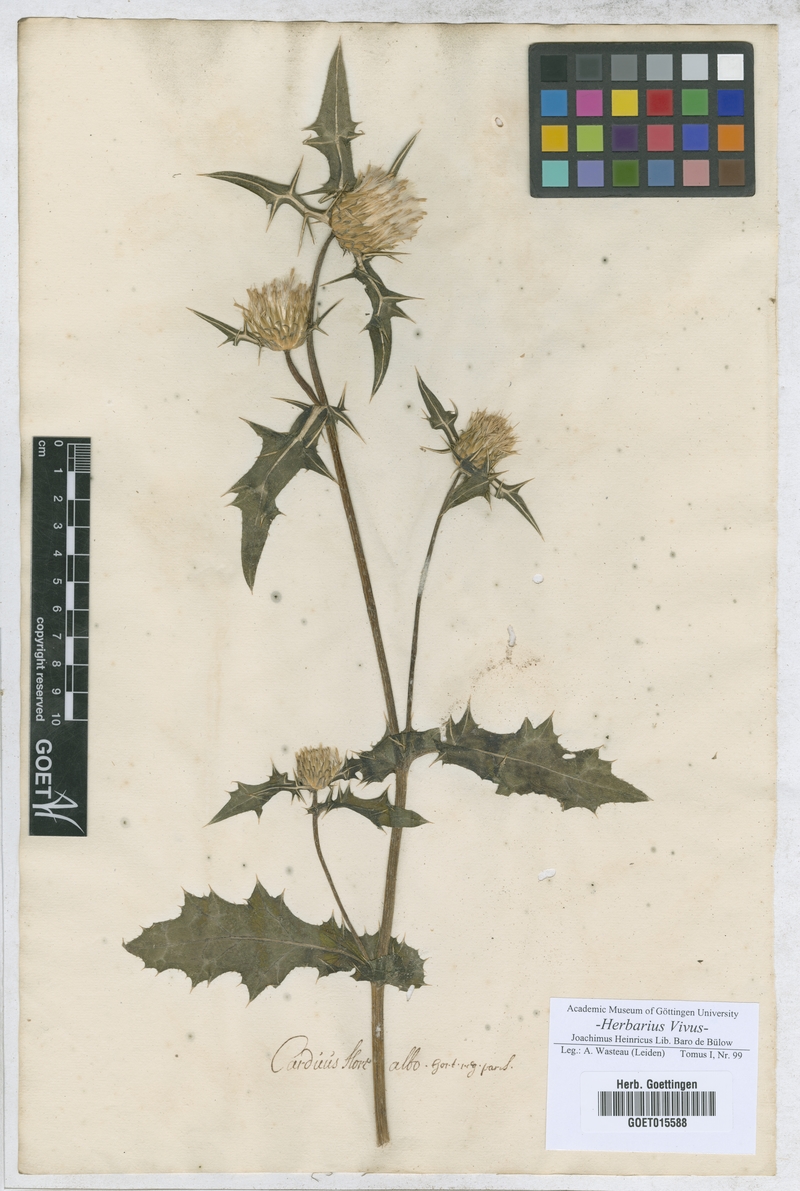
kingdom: Plantae
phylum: Tracheophyta
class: Magnoliopsida
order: Asterales
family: Asteraceae
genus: Carduus
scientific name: Carduus
